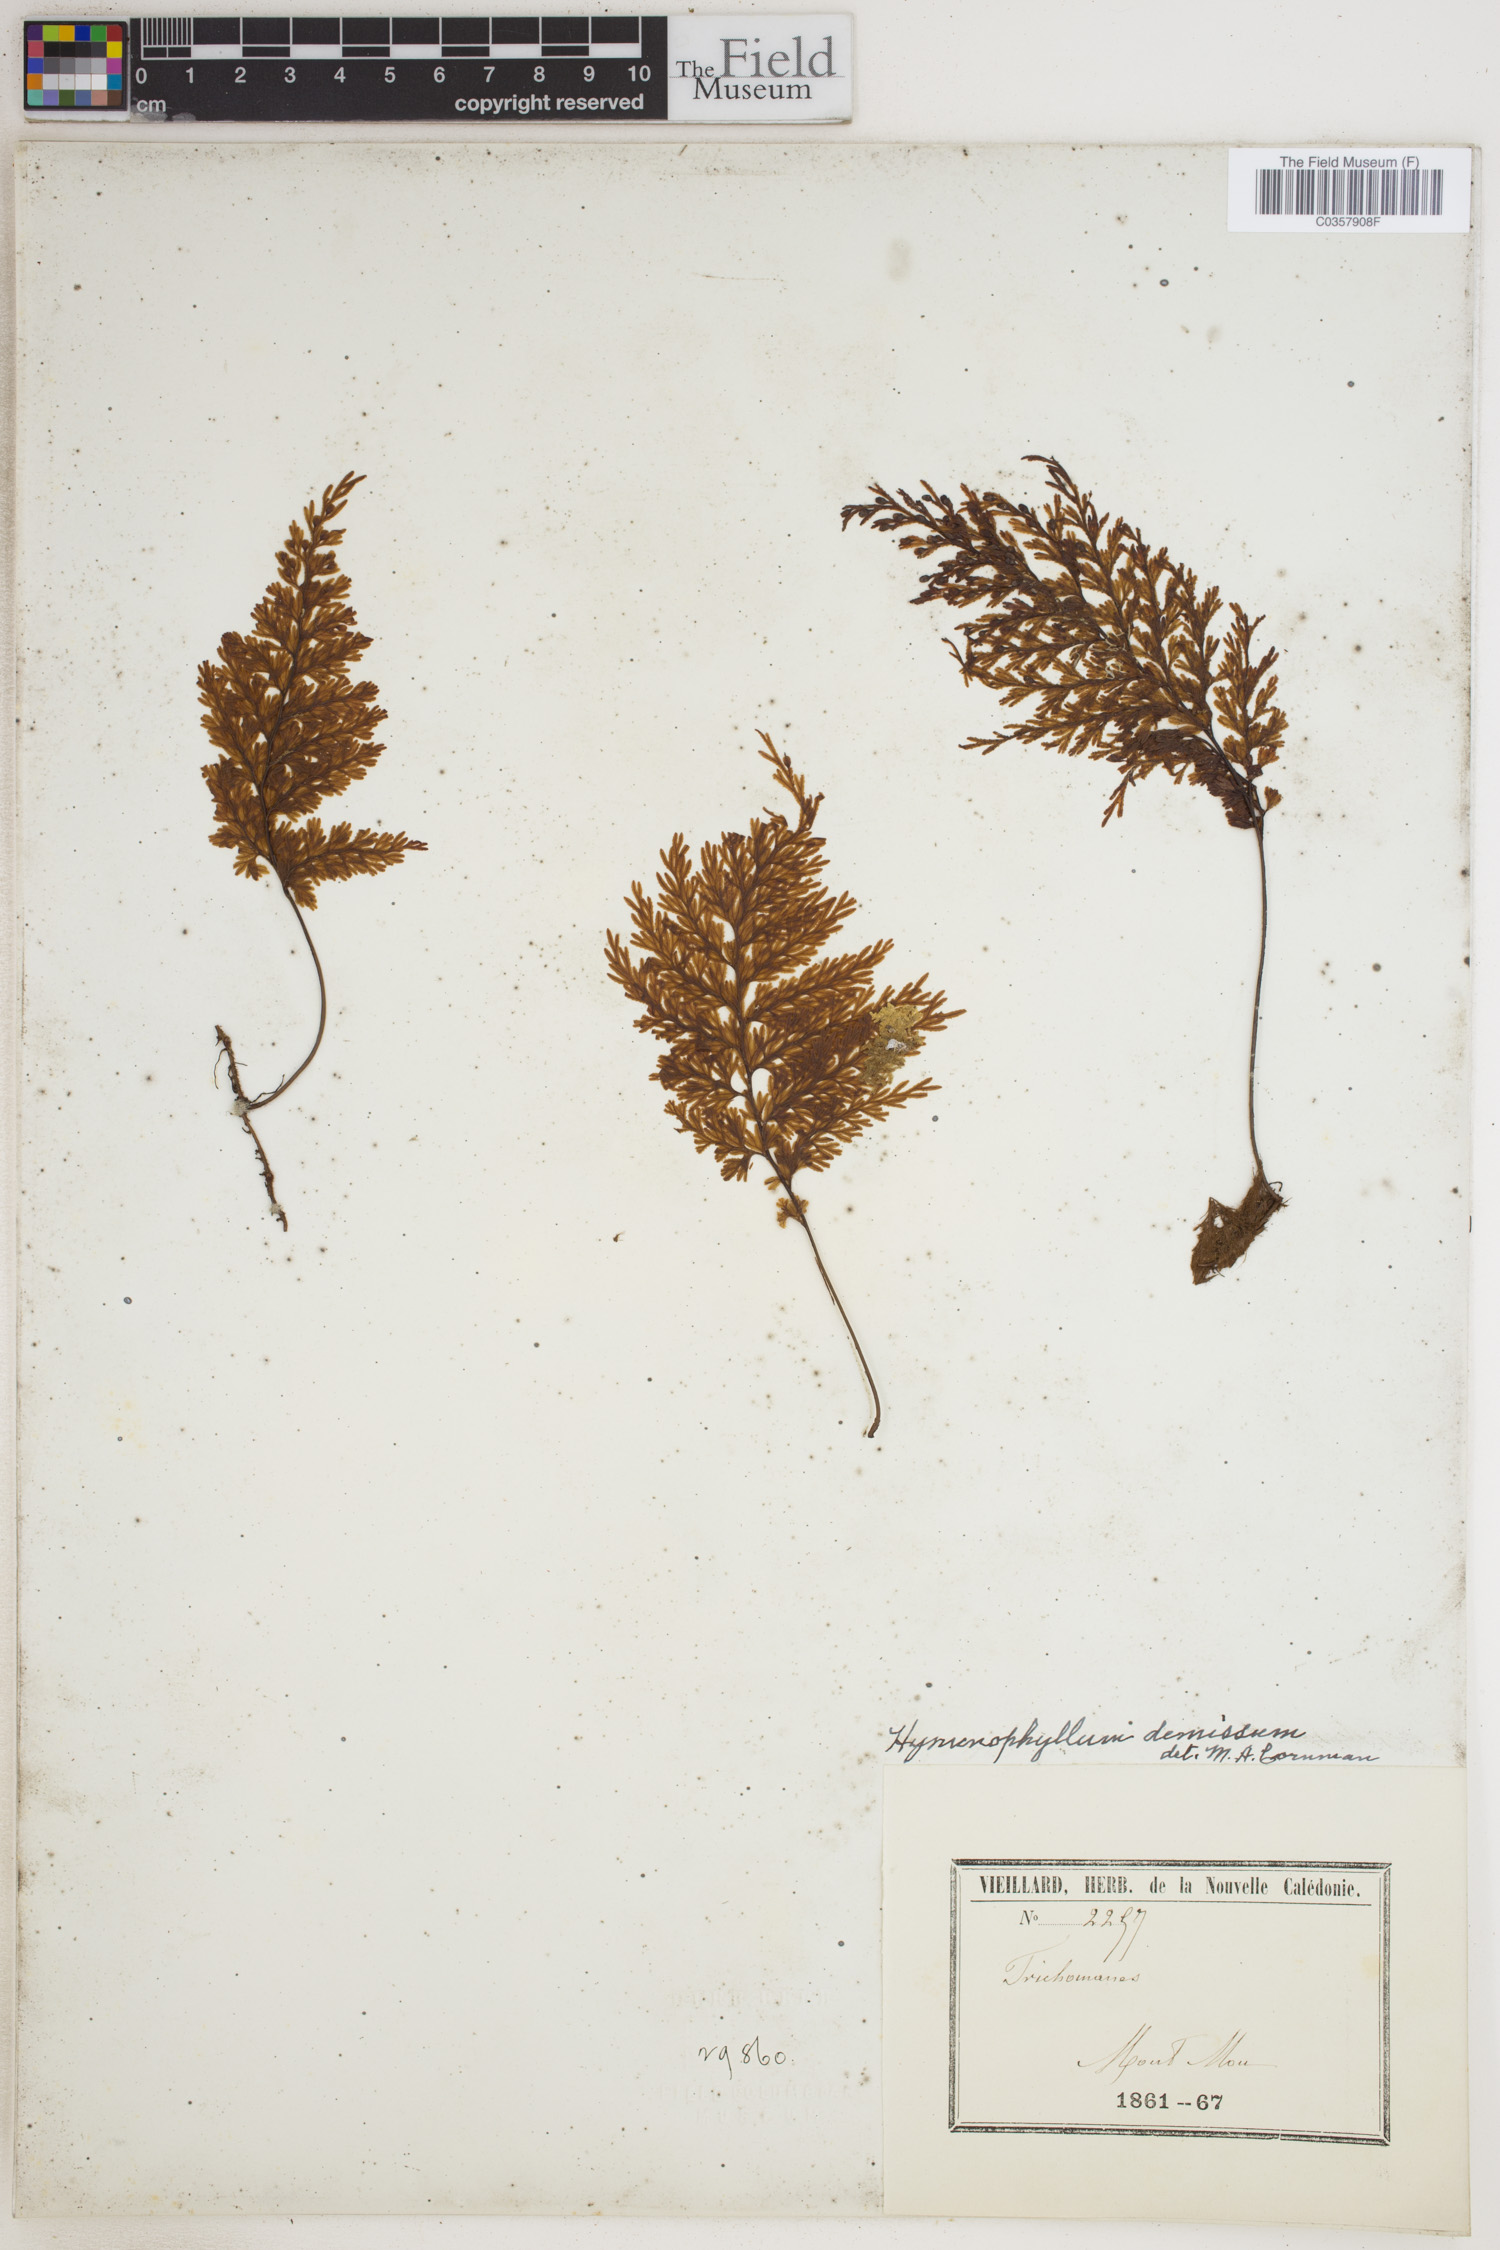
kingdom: Plantae
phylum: Tracheophyta
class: Polypodiopsida
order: Hymenophyllales
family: Hymenophyllaceae
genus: Hymenophyllum
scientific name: Hymenophyllum demissum
